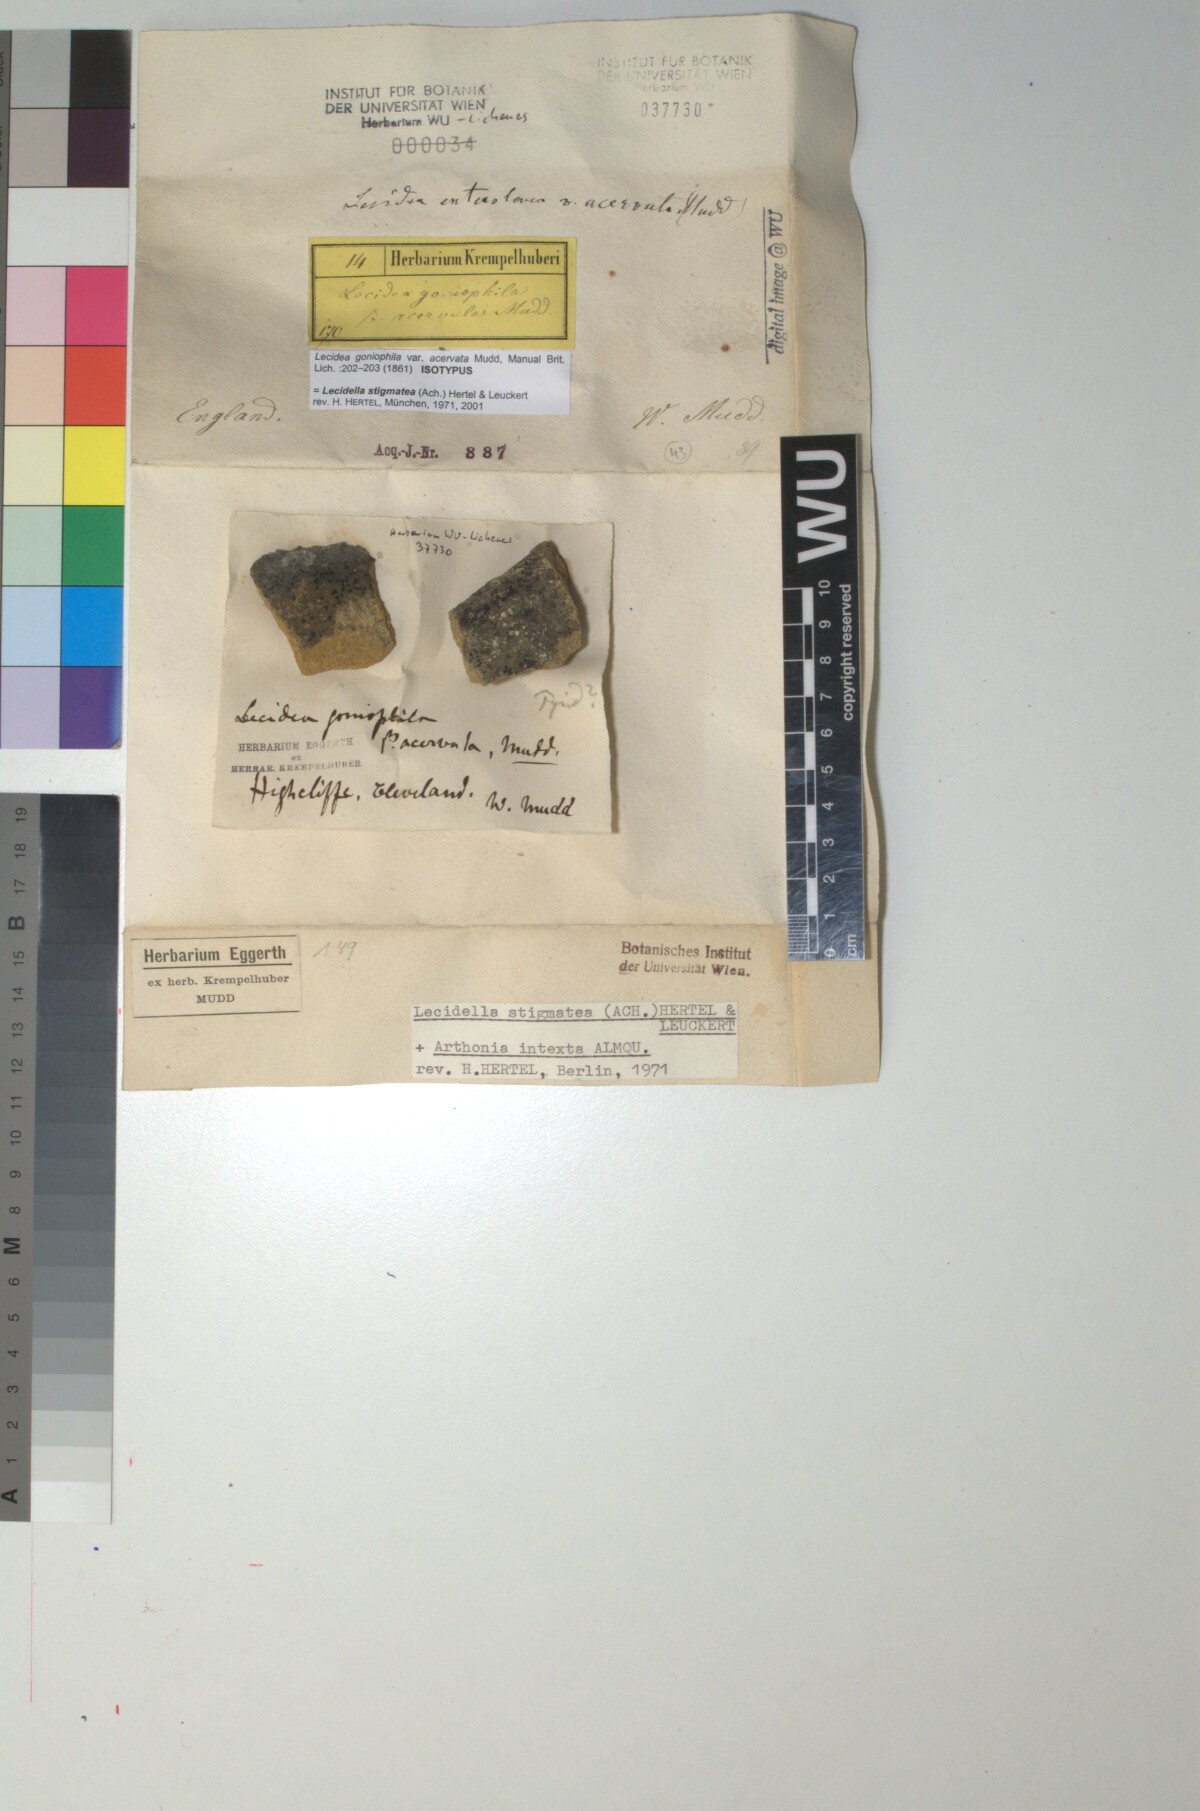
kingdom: Fungi
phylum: Ascomycota
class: Lecanoromycetes
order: Lecanorales
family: Lecanoraceae
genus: Lecidella
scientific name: Lecidella anomaloides
